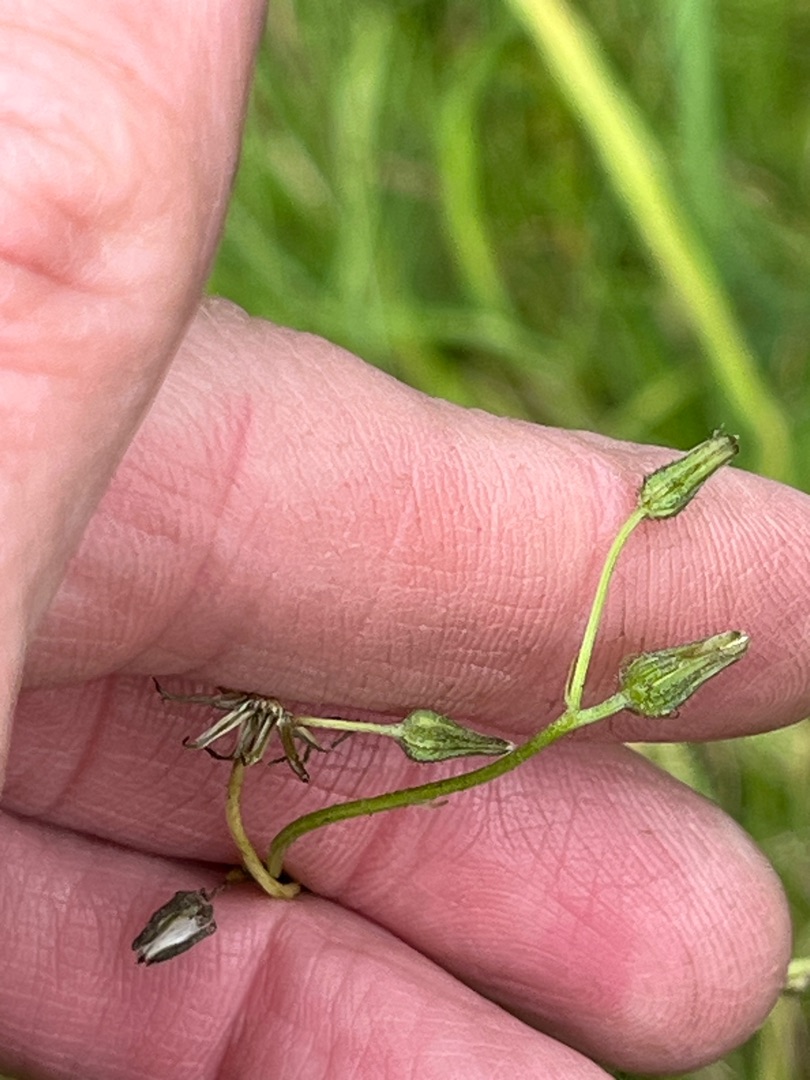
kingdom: Plantae
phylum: Tracheophyta
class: Magnoliopsida
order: Asterales
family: Asteraceae
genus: Crepis
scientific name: Crepis capillaris
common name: Grøn høgeskæg
